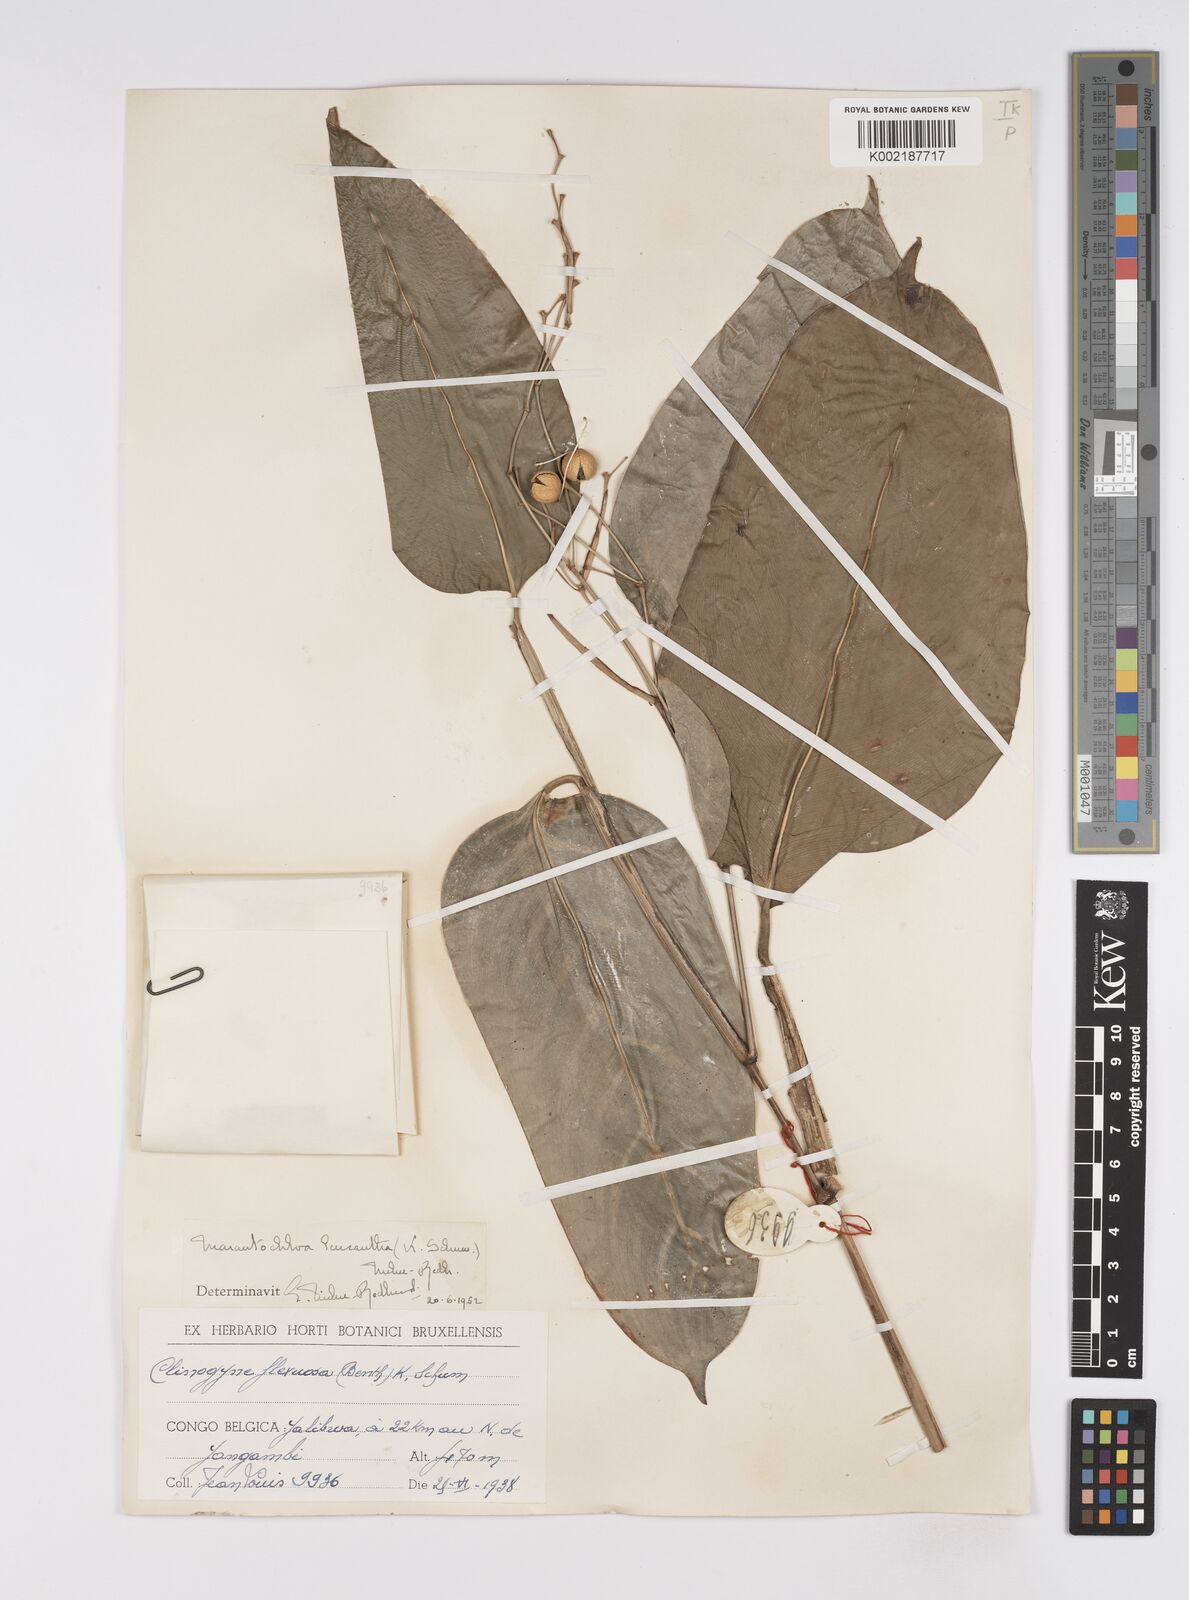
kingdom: Plantae
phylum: Tracheophyta
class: Liliopsida
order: Zingiberales
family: Marantaceae
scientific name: Marantaceae
